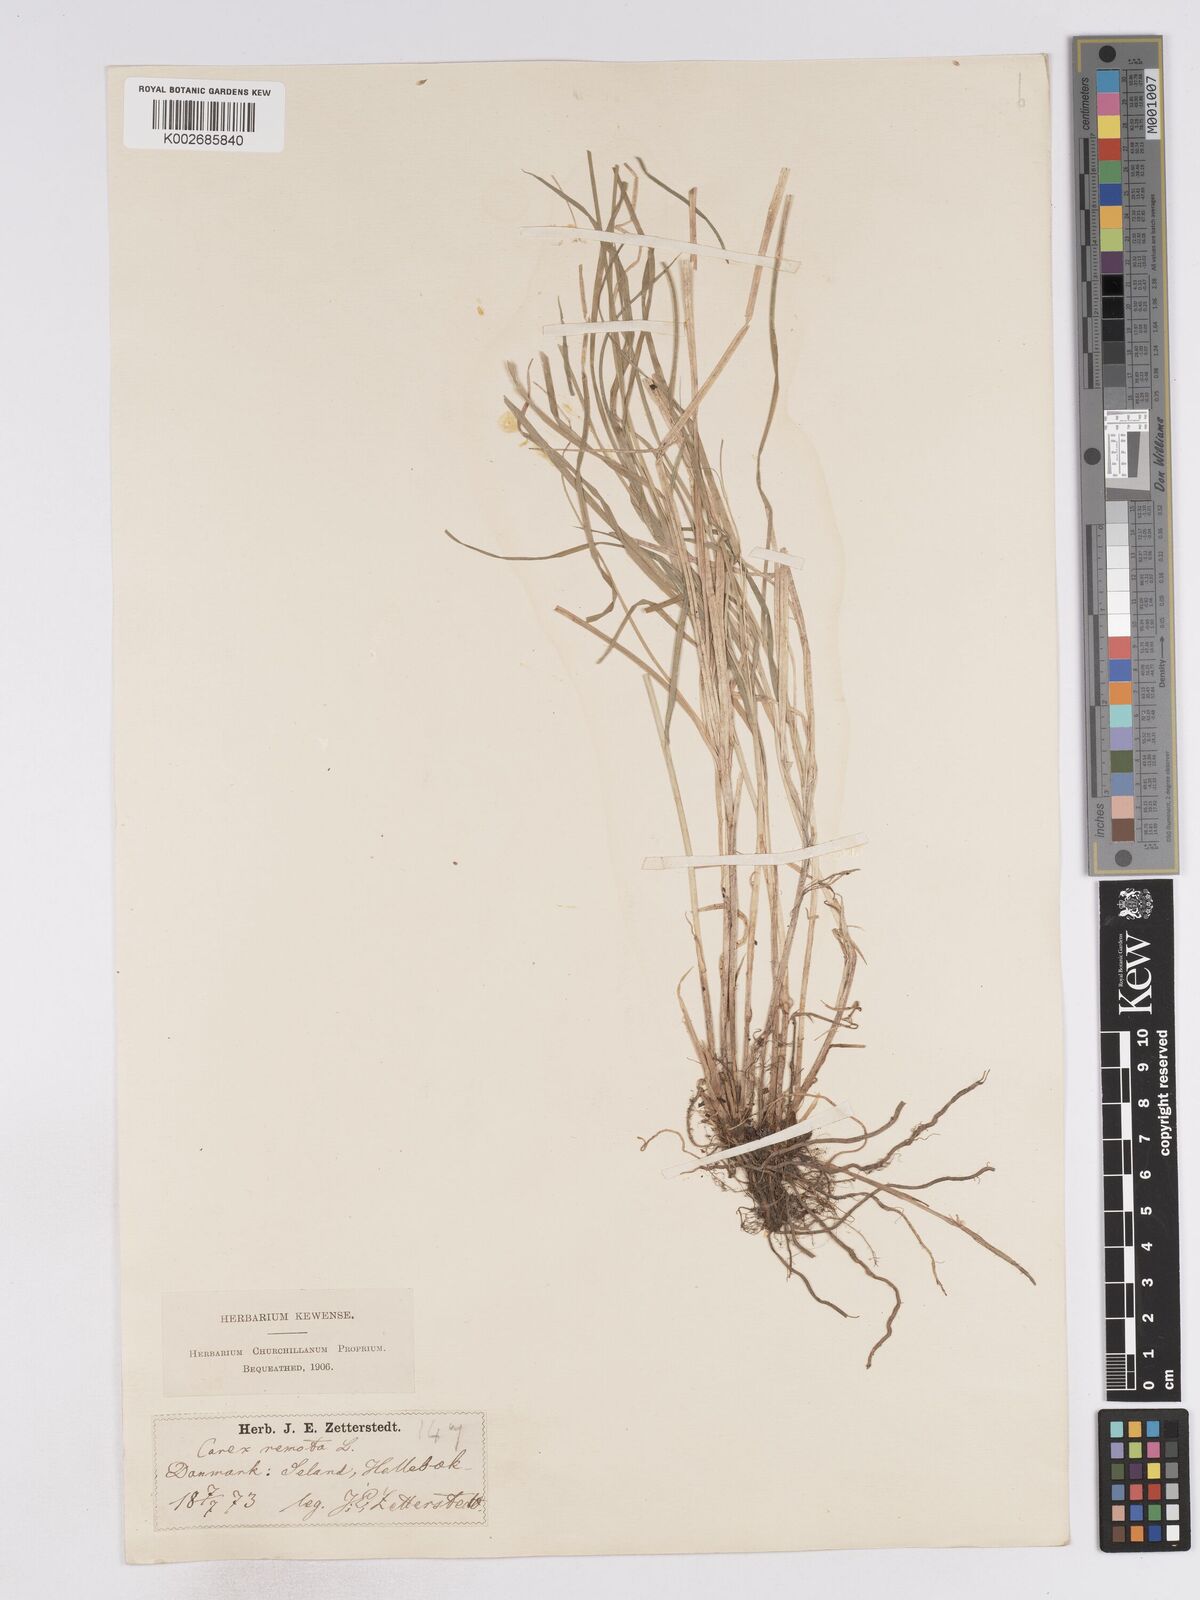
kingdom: Plantae
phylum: Tracheophyta
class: Liliopsida
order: Poales
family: Cyperaceae
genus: Carex
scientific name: Carex remota
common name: Remote sedge
